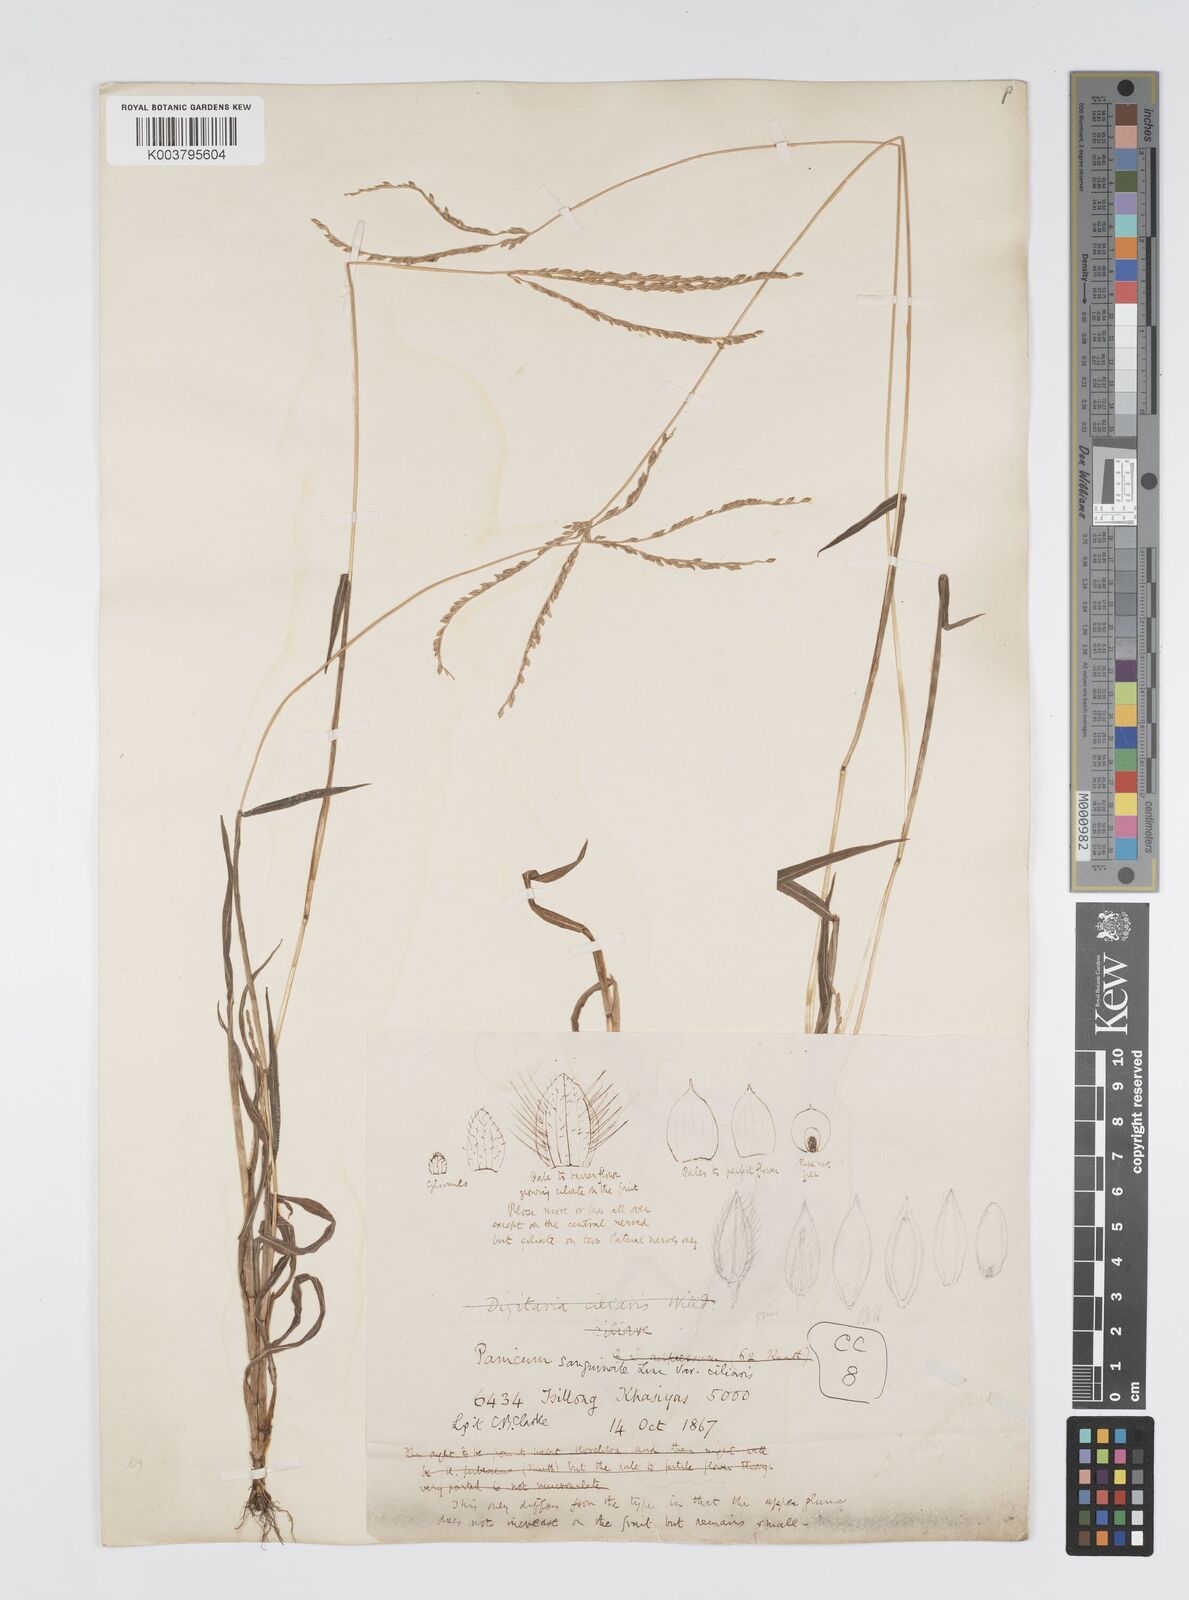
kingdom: Plantae
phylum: Tracheophyta
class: Liliopsida
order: Poales
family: Poaceae
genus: Digitaria
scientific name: Digitaria sanguinalis
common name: Hairy crabgrass
